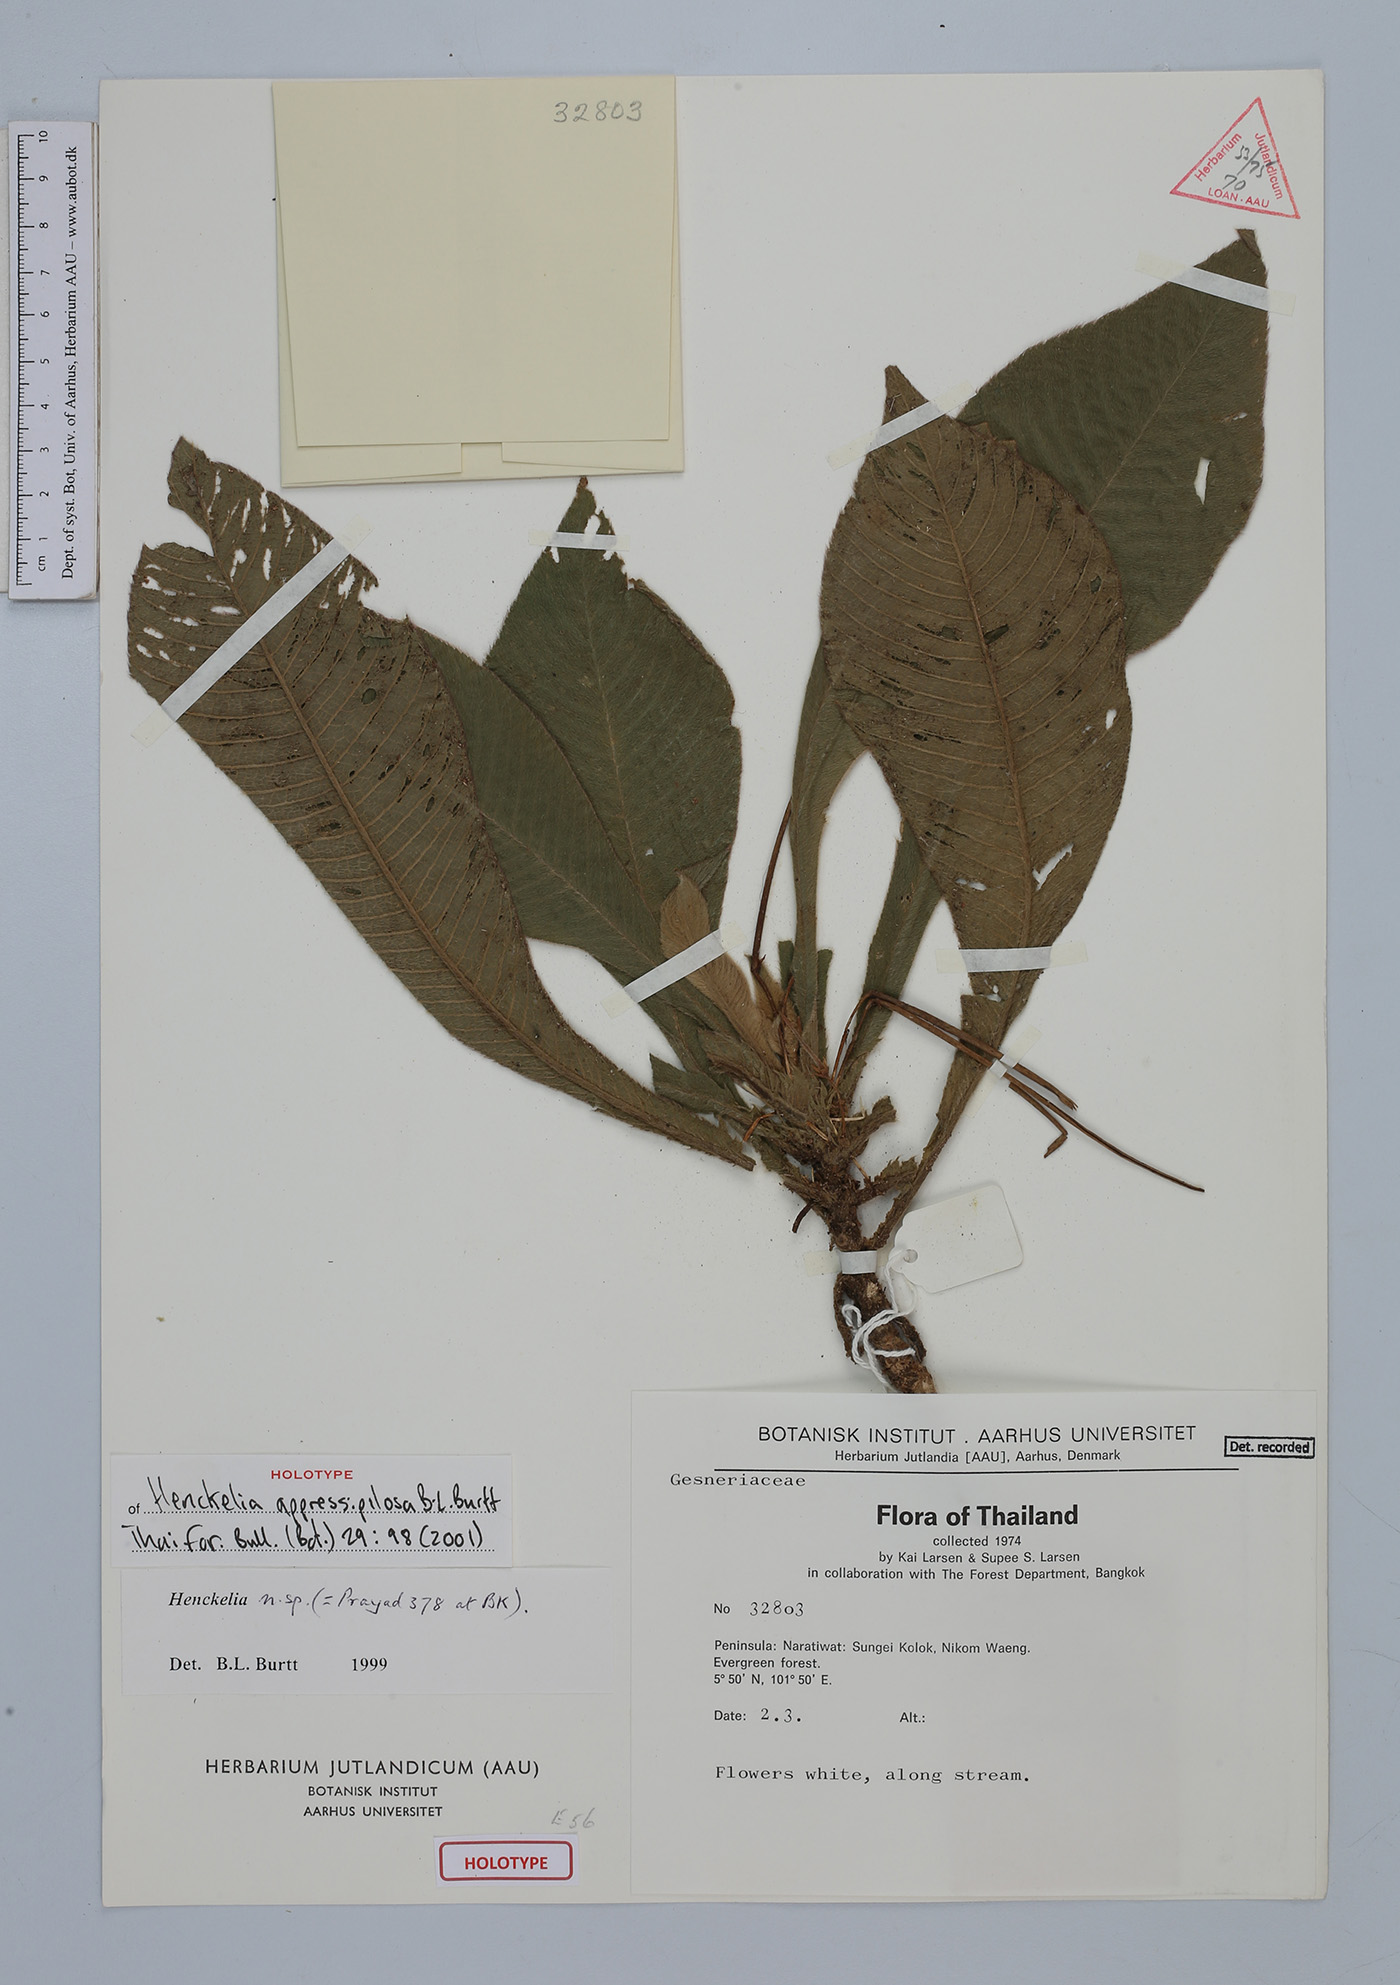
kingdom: Plantae
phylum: Tracheophyta
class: Magnoliopsida
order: Lamiales
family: Gesneriaceae
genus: Codonoboea
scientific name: Codonoboea appressipilosa
